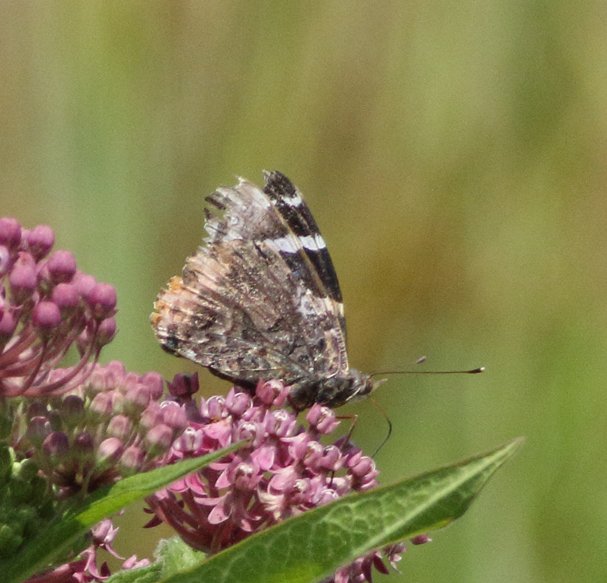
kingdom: Animalia
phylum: Arthropoda
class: Insecta
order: Lepidoptera
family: Nymphalidae
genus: Vanessa
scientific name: Vanessa atalanta
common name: Red Admiral
